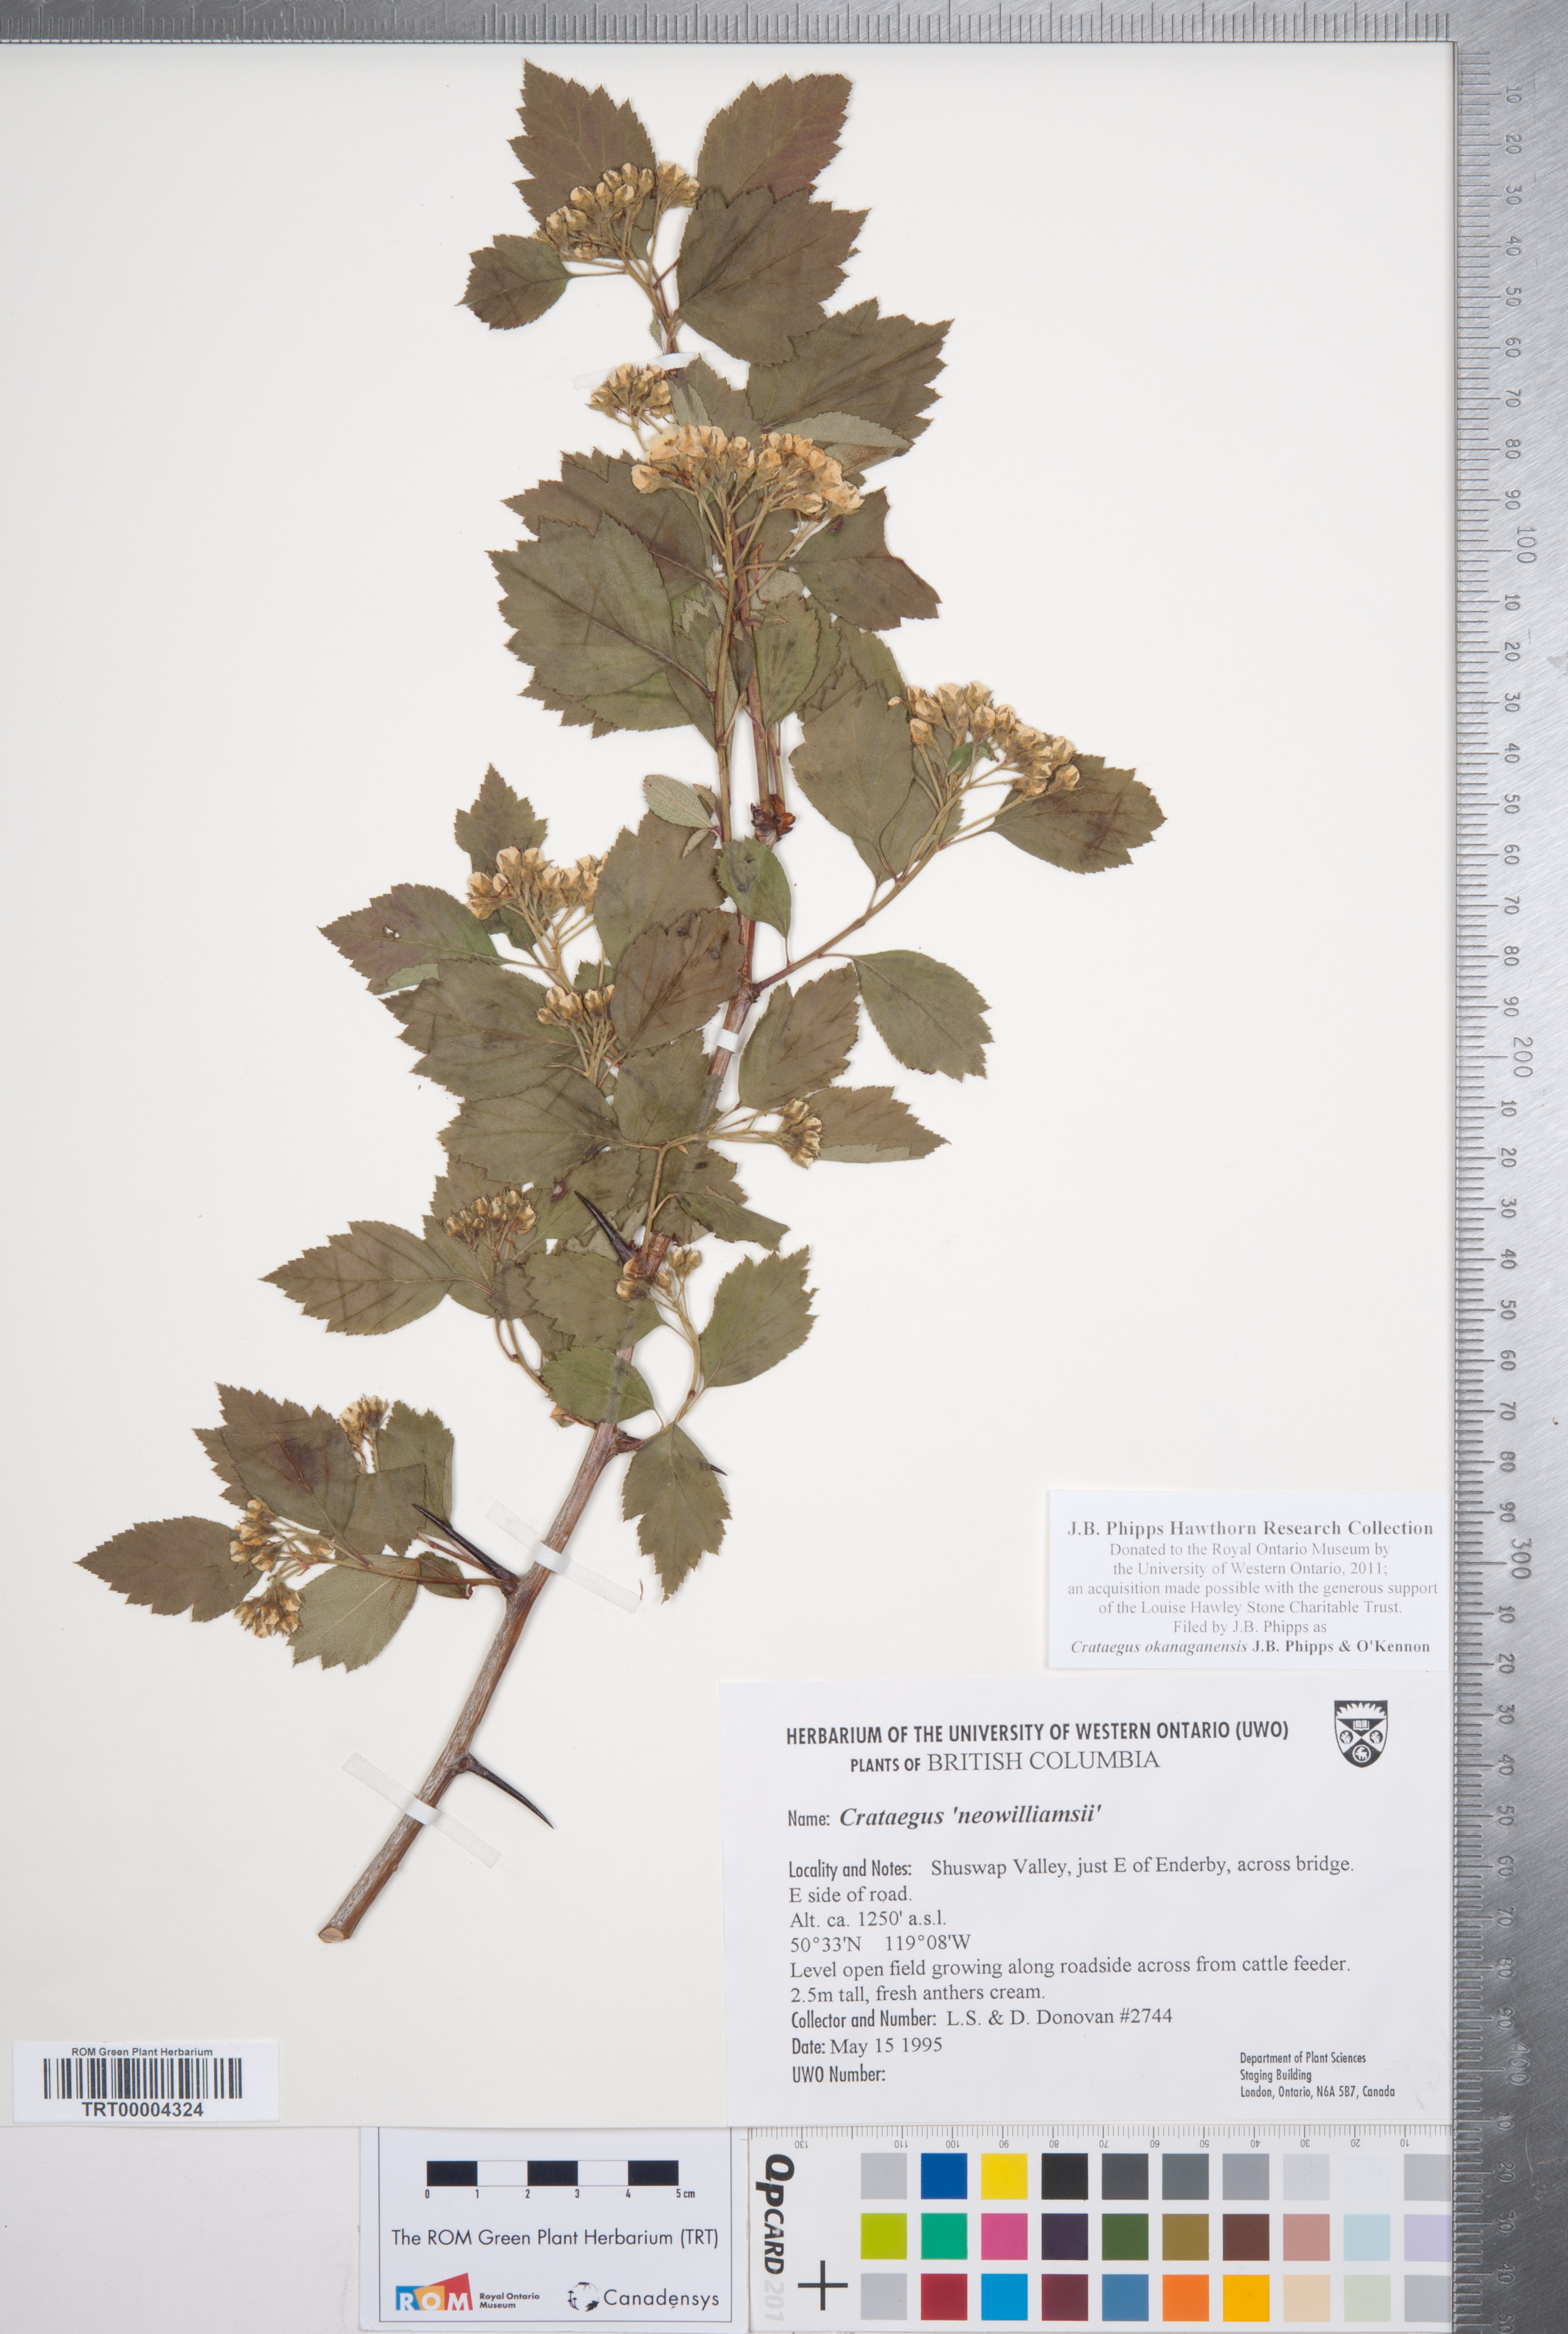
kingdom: Plantae
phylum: Tracheophyta
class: Magnoliopsida
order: Rosales
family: Rosaceae
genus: Crataegus
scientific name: Crataegus okanaganensis
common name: Okanagan valley hawthorn
